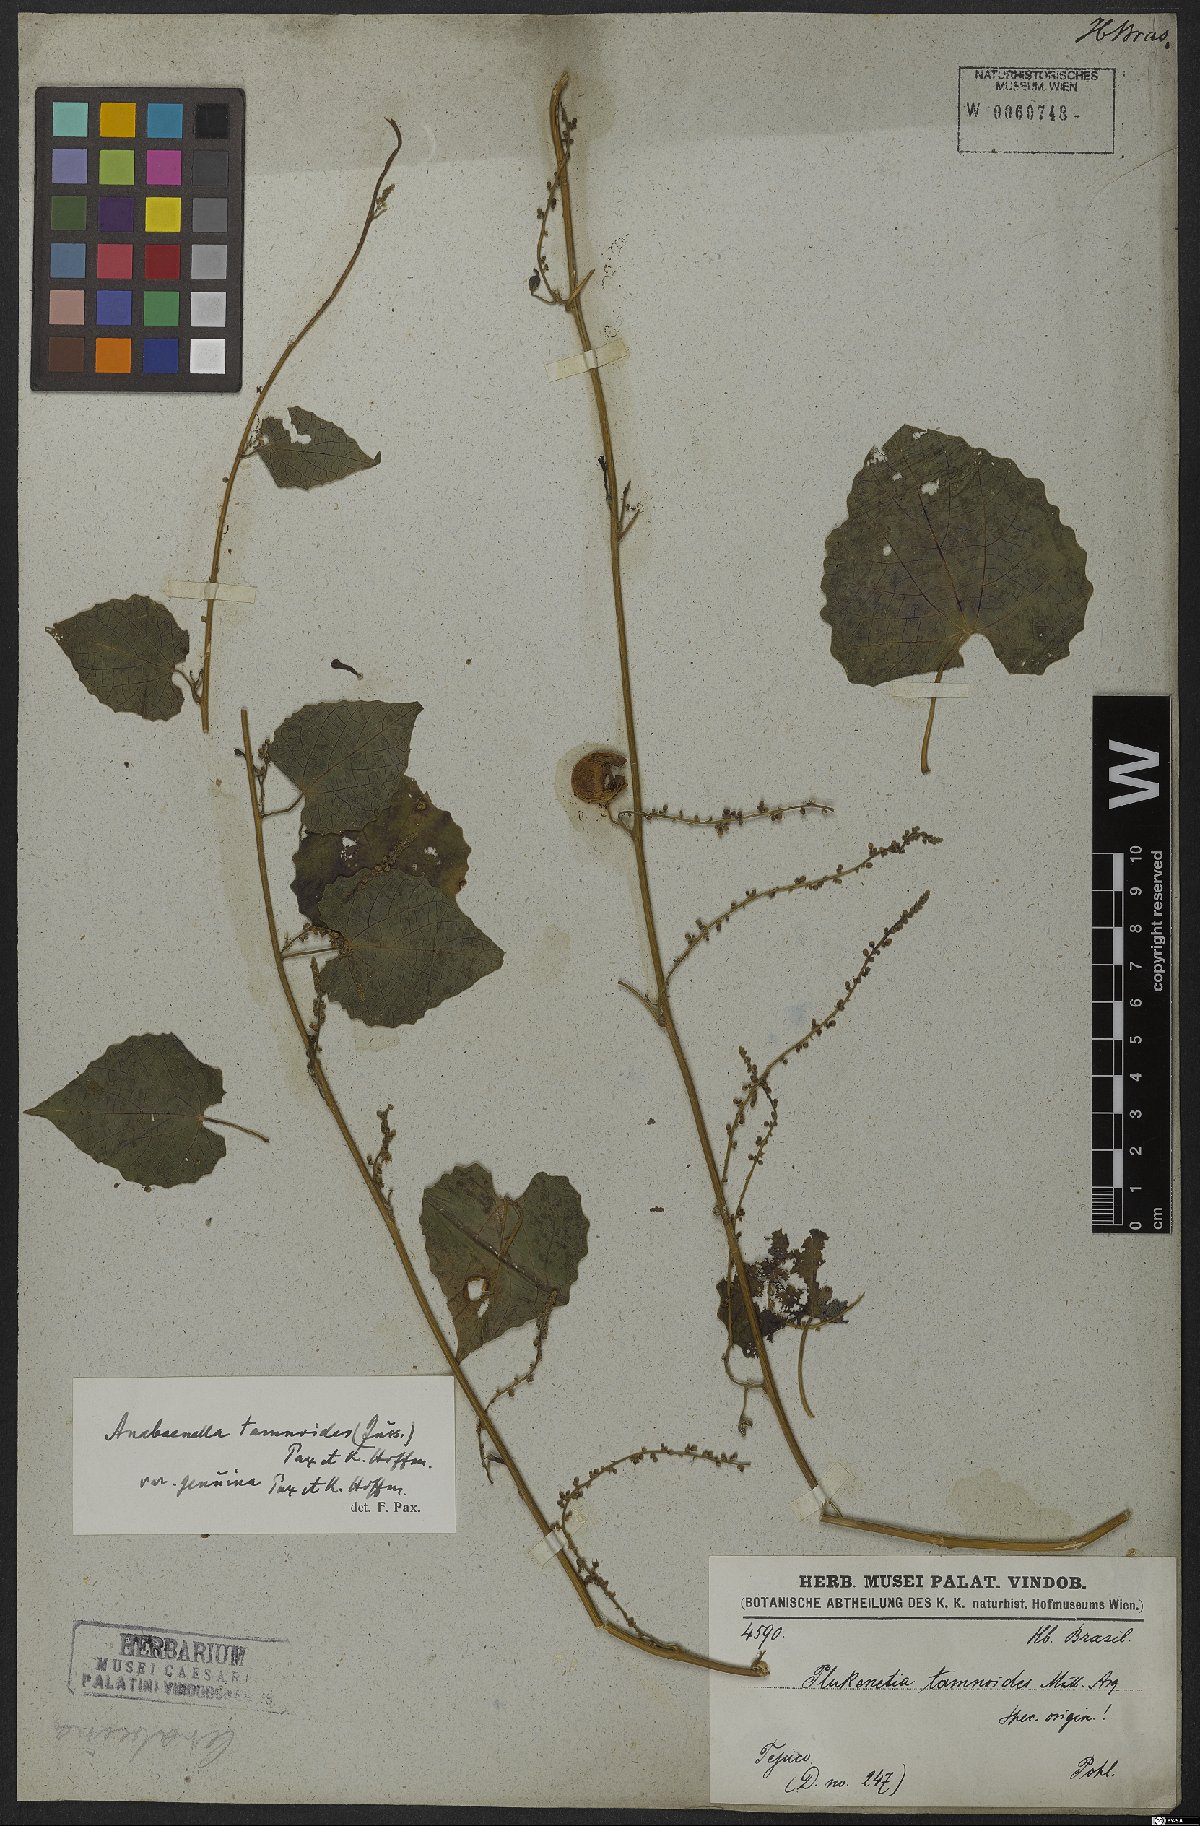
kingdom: Plantae
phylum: Tracheophyta
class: Magnoliopsida
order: Malpighiales
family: Euphorbiaceae
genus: Romanoa
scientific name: Romanoa tamnoides
